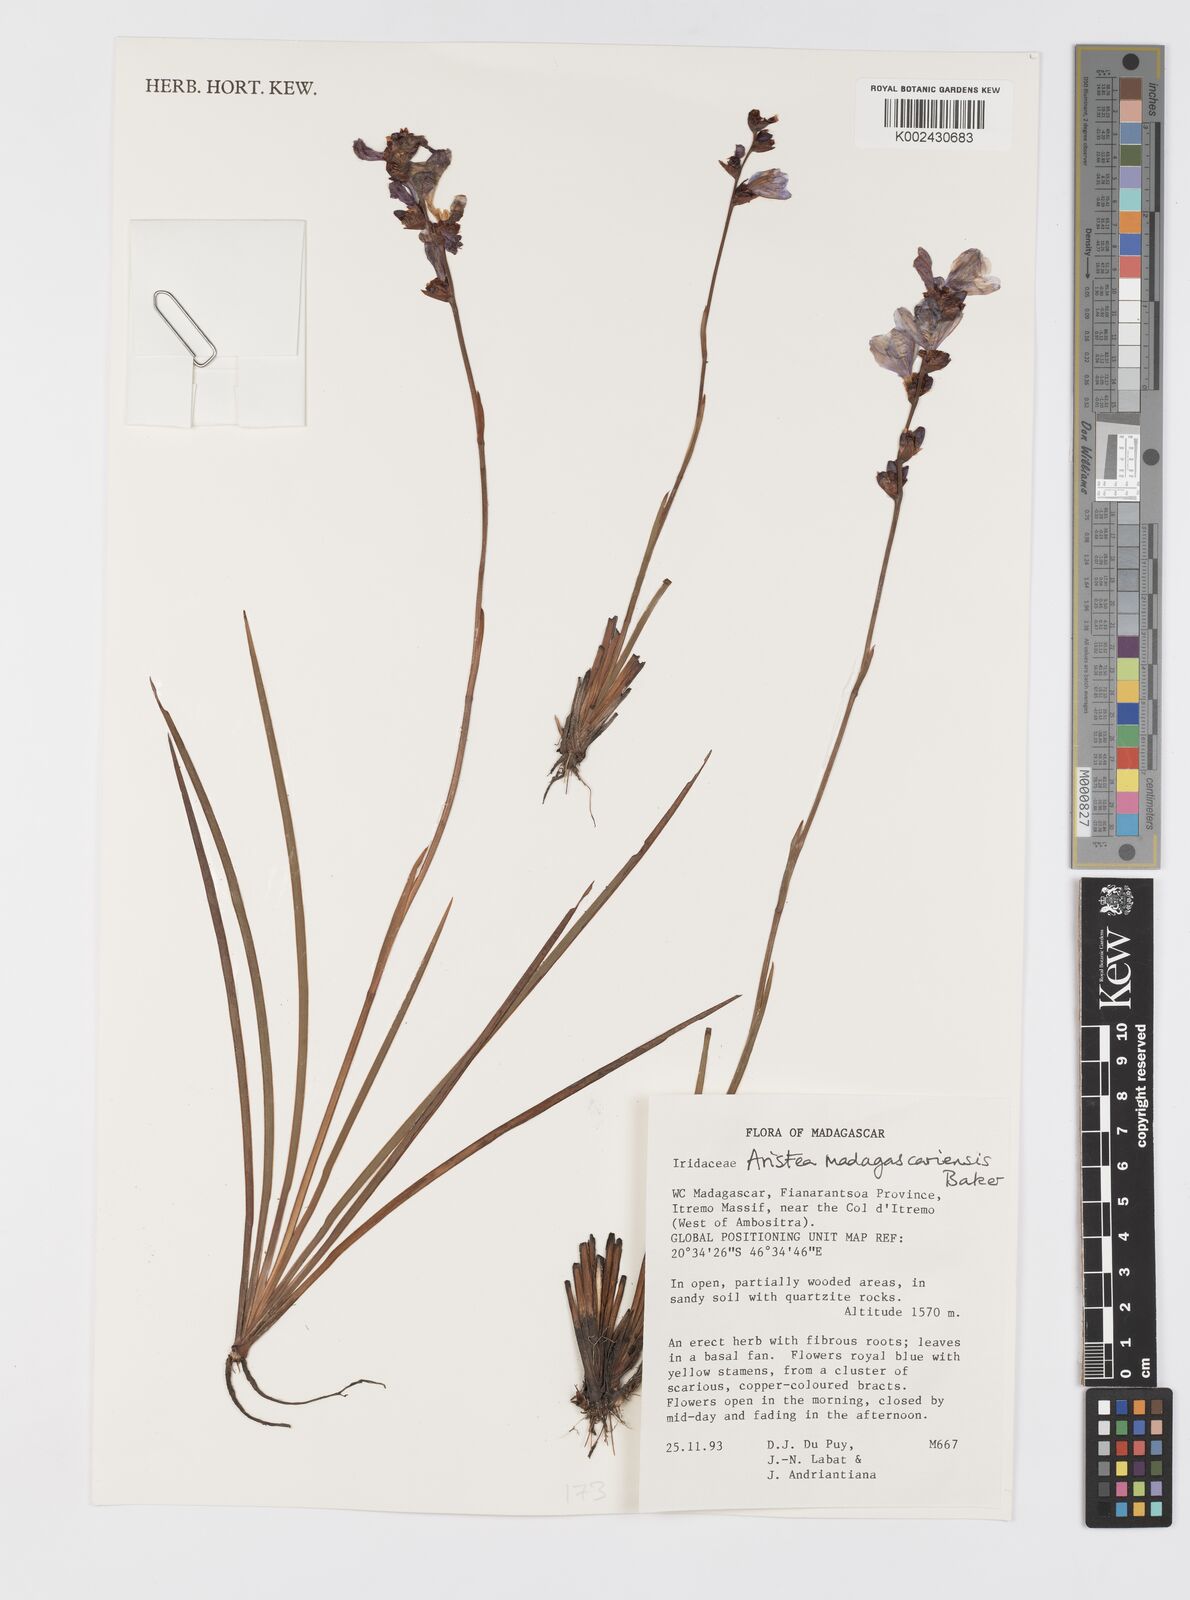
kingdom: Plantae
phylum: Tracheophyta
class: Liliopsida
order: Asparagales
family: Iridaceae
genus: Aristea
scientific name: Aristea madagascariensis
